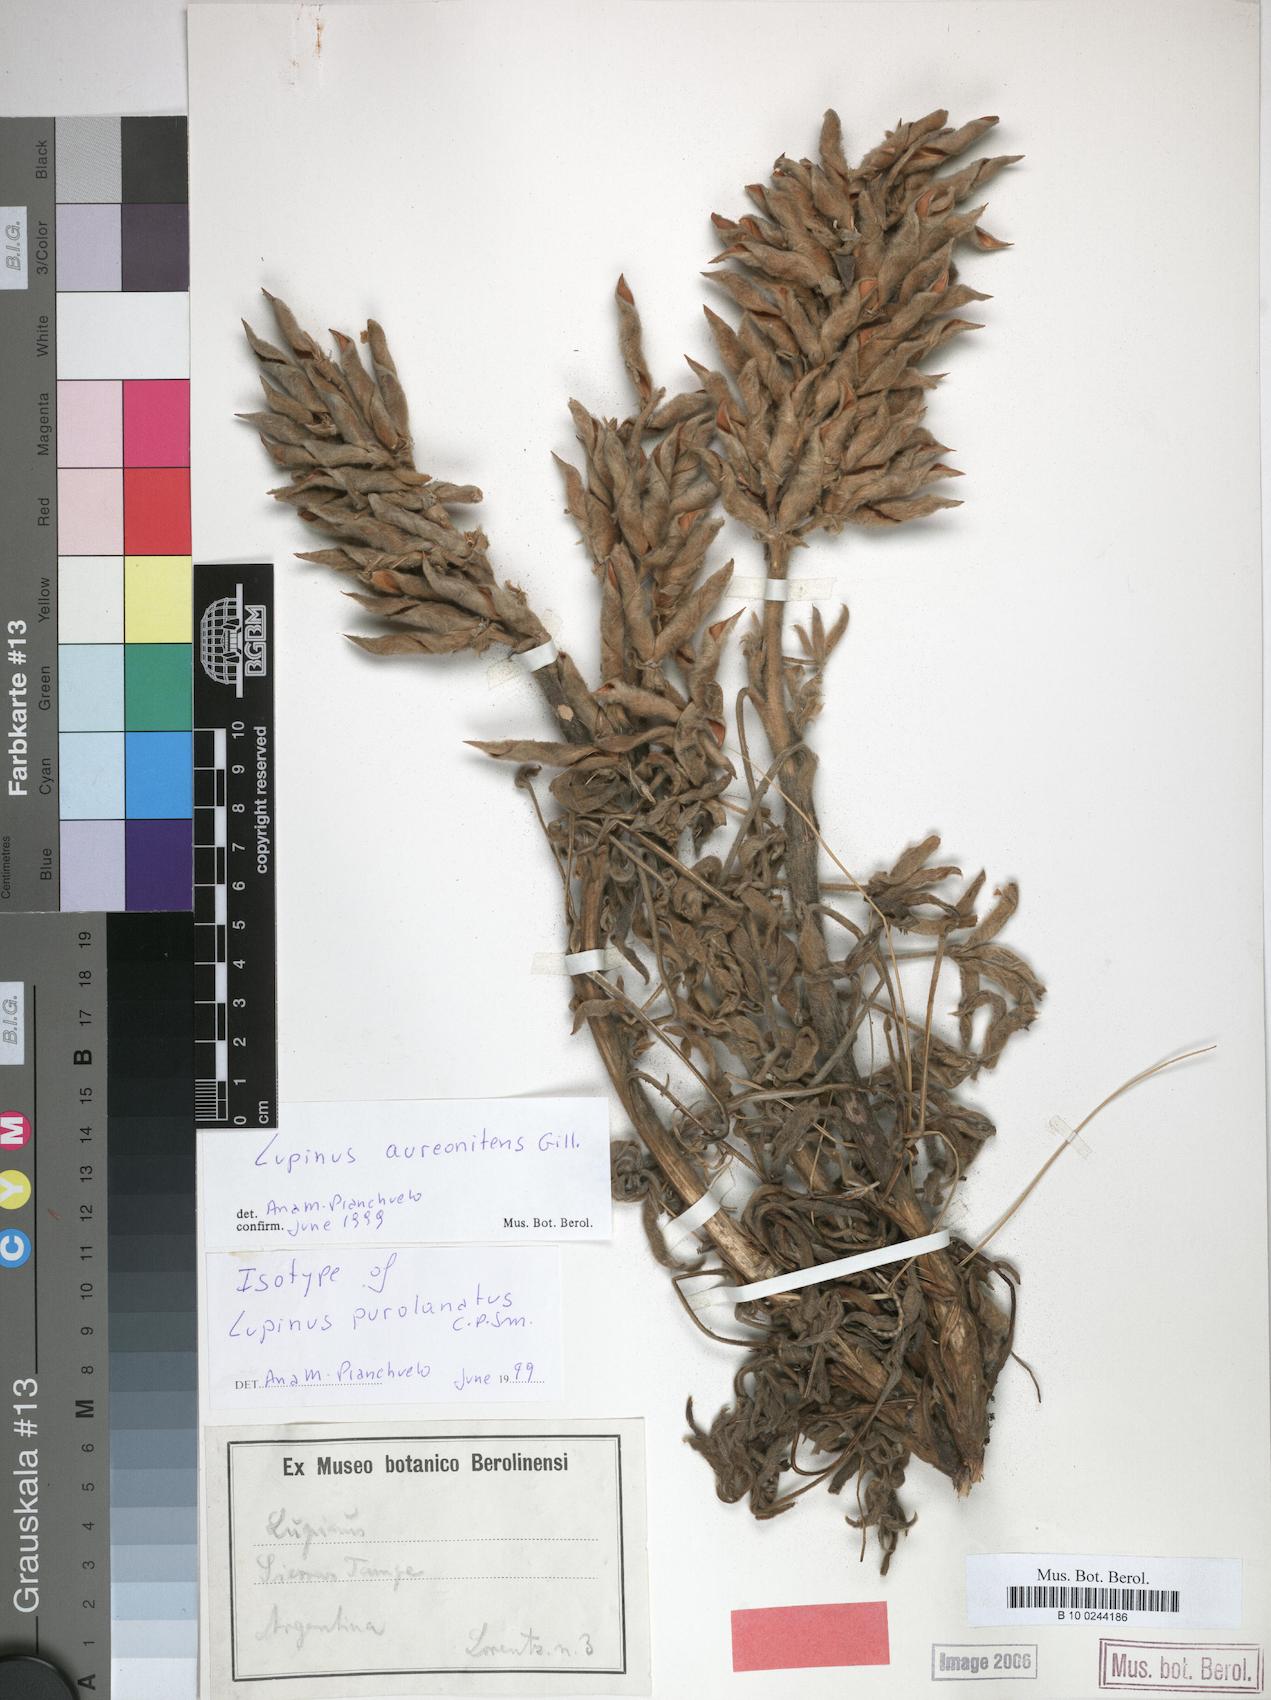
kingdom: Plantae
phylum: Tracheophyta
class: Magnoliopsida
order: Fabales
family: Fabaceae
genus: Lupinus
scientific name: Lupinus aureonitens
